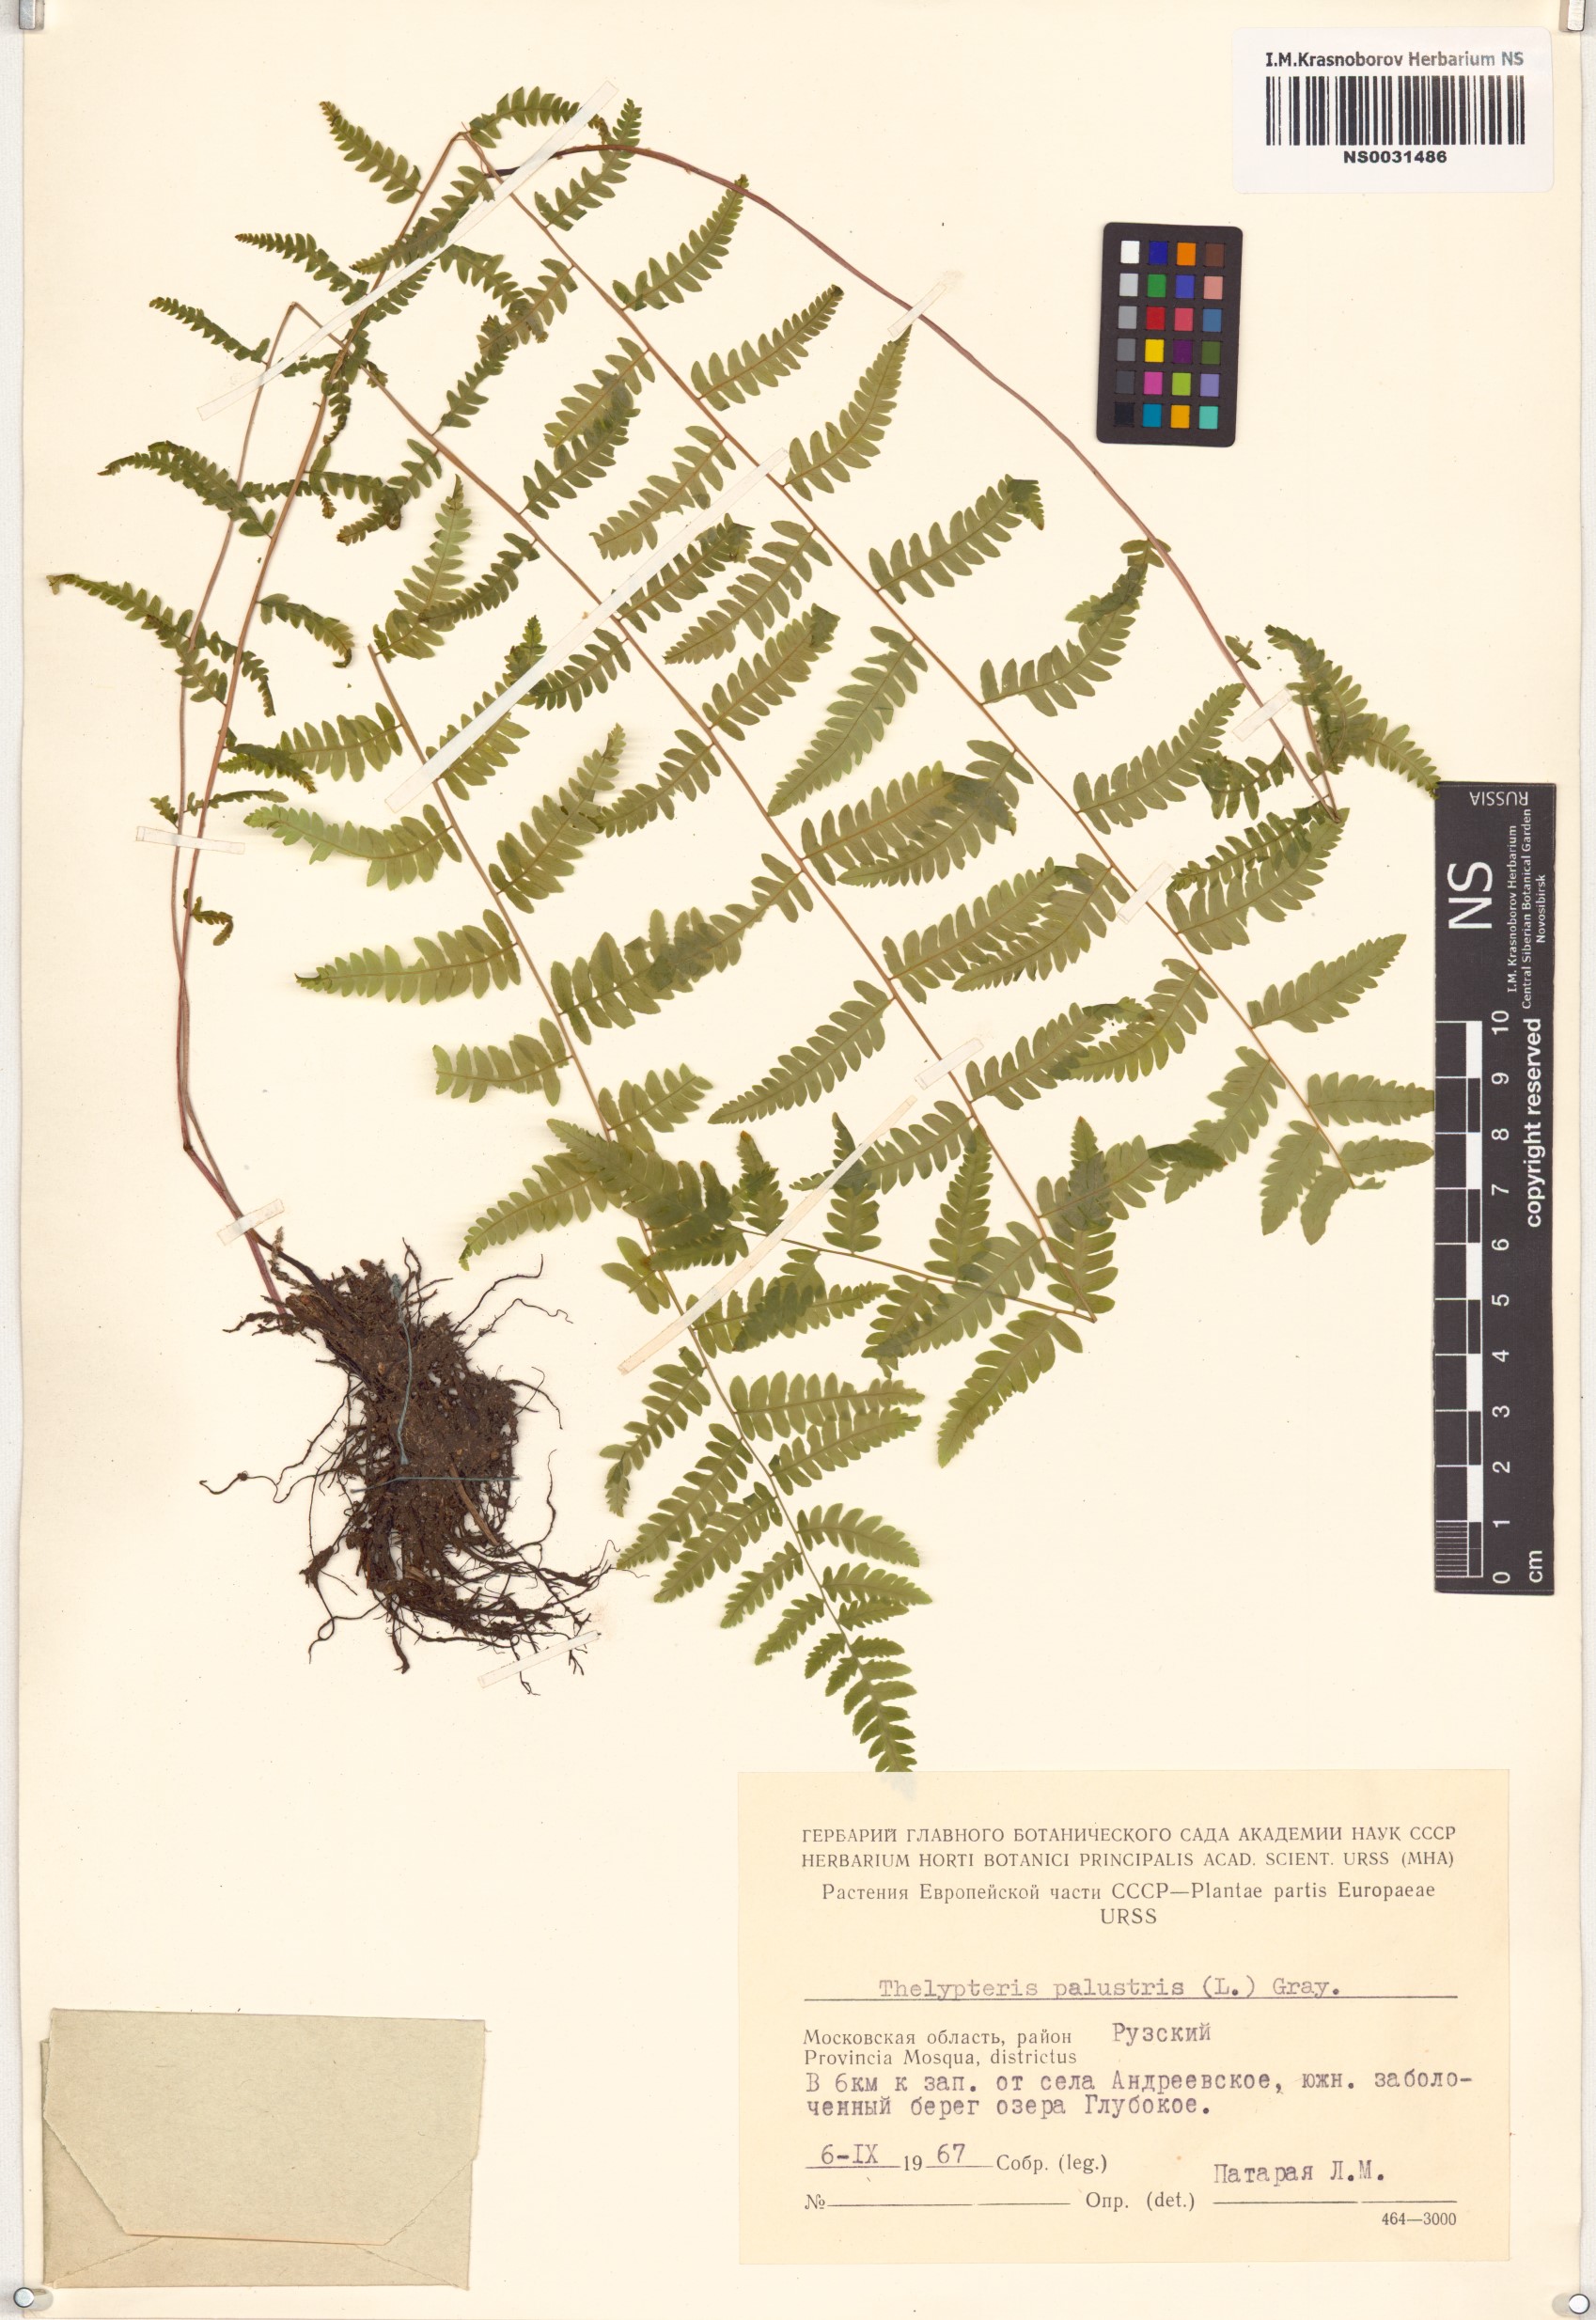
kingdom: Plantae
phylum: Tracheophyta
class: Polypodiopsida
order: Polypodiales
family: Thelypteridaceae
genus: Thelypteris
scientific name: Thelypteris palustris
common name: Marsh fern
